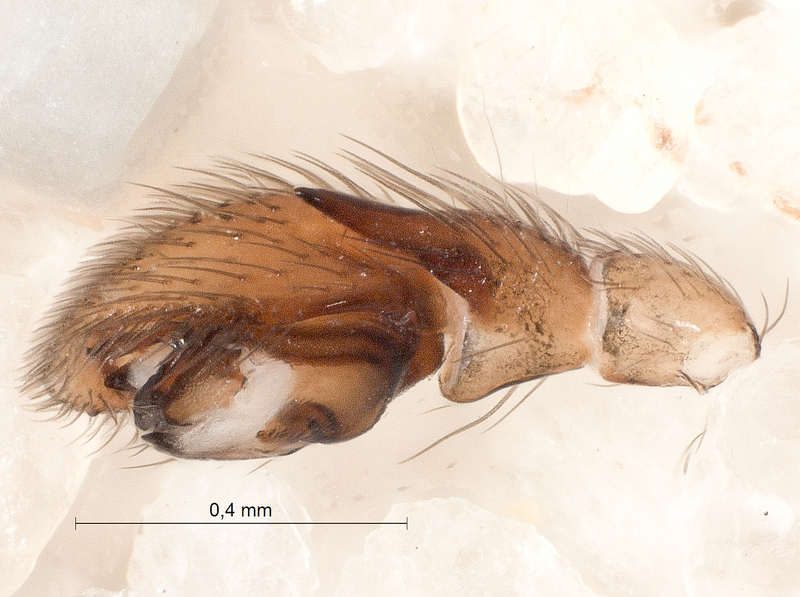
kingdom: Animalia
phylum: Arthropoda
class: Arachnida
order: Araneae
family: Gnaphosidae
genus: Zelotes
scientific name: Zelotes electus
